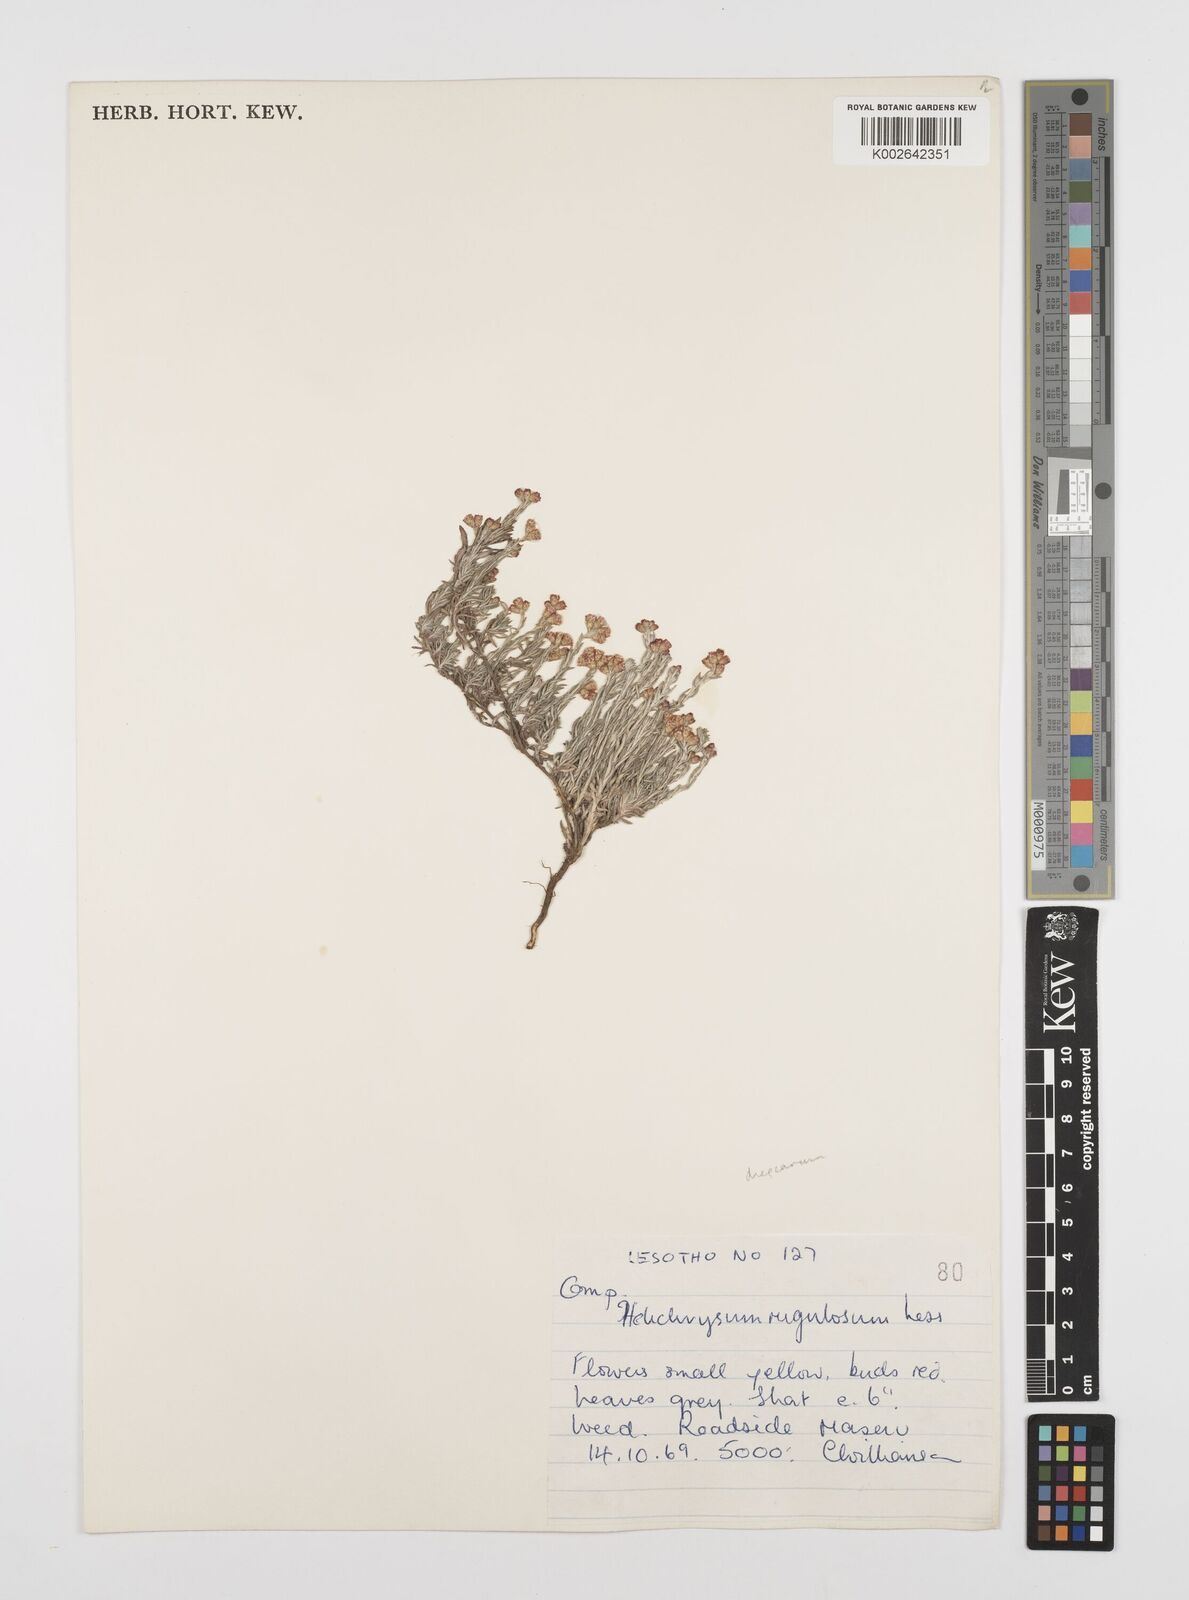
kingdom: Plantae
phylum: Tracheophyta
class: Magnoliopsida
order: Asterales
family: Asteraceae
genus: Helichrysum
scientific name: Helichrysum dregeanum
